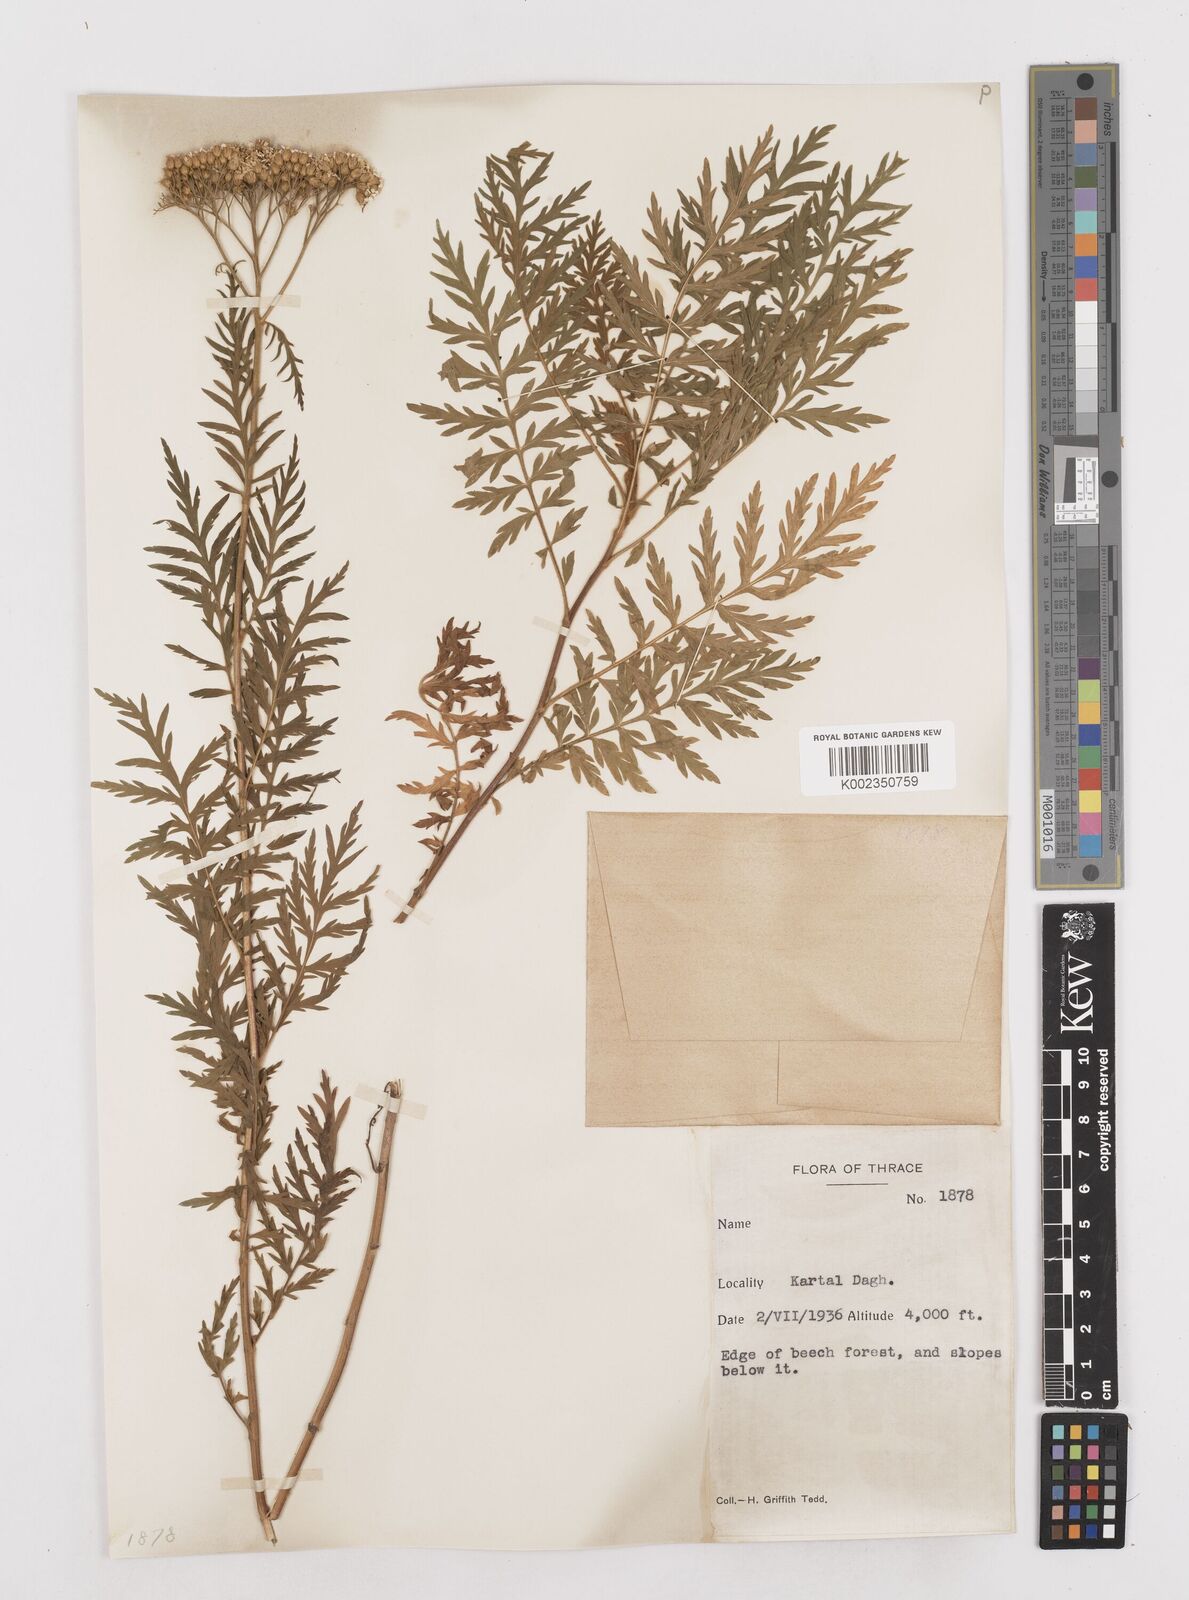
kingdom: Plantae
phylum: Tracheophyta
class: Magnoliopsida
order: Asterales
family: Asteraceae
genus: Achillea
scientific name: Achillea grandifolia
